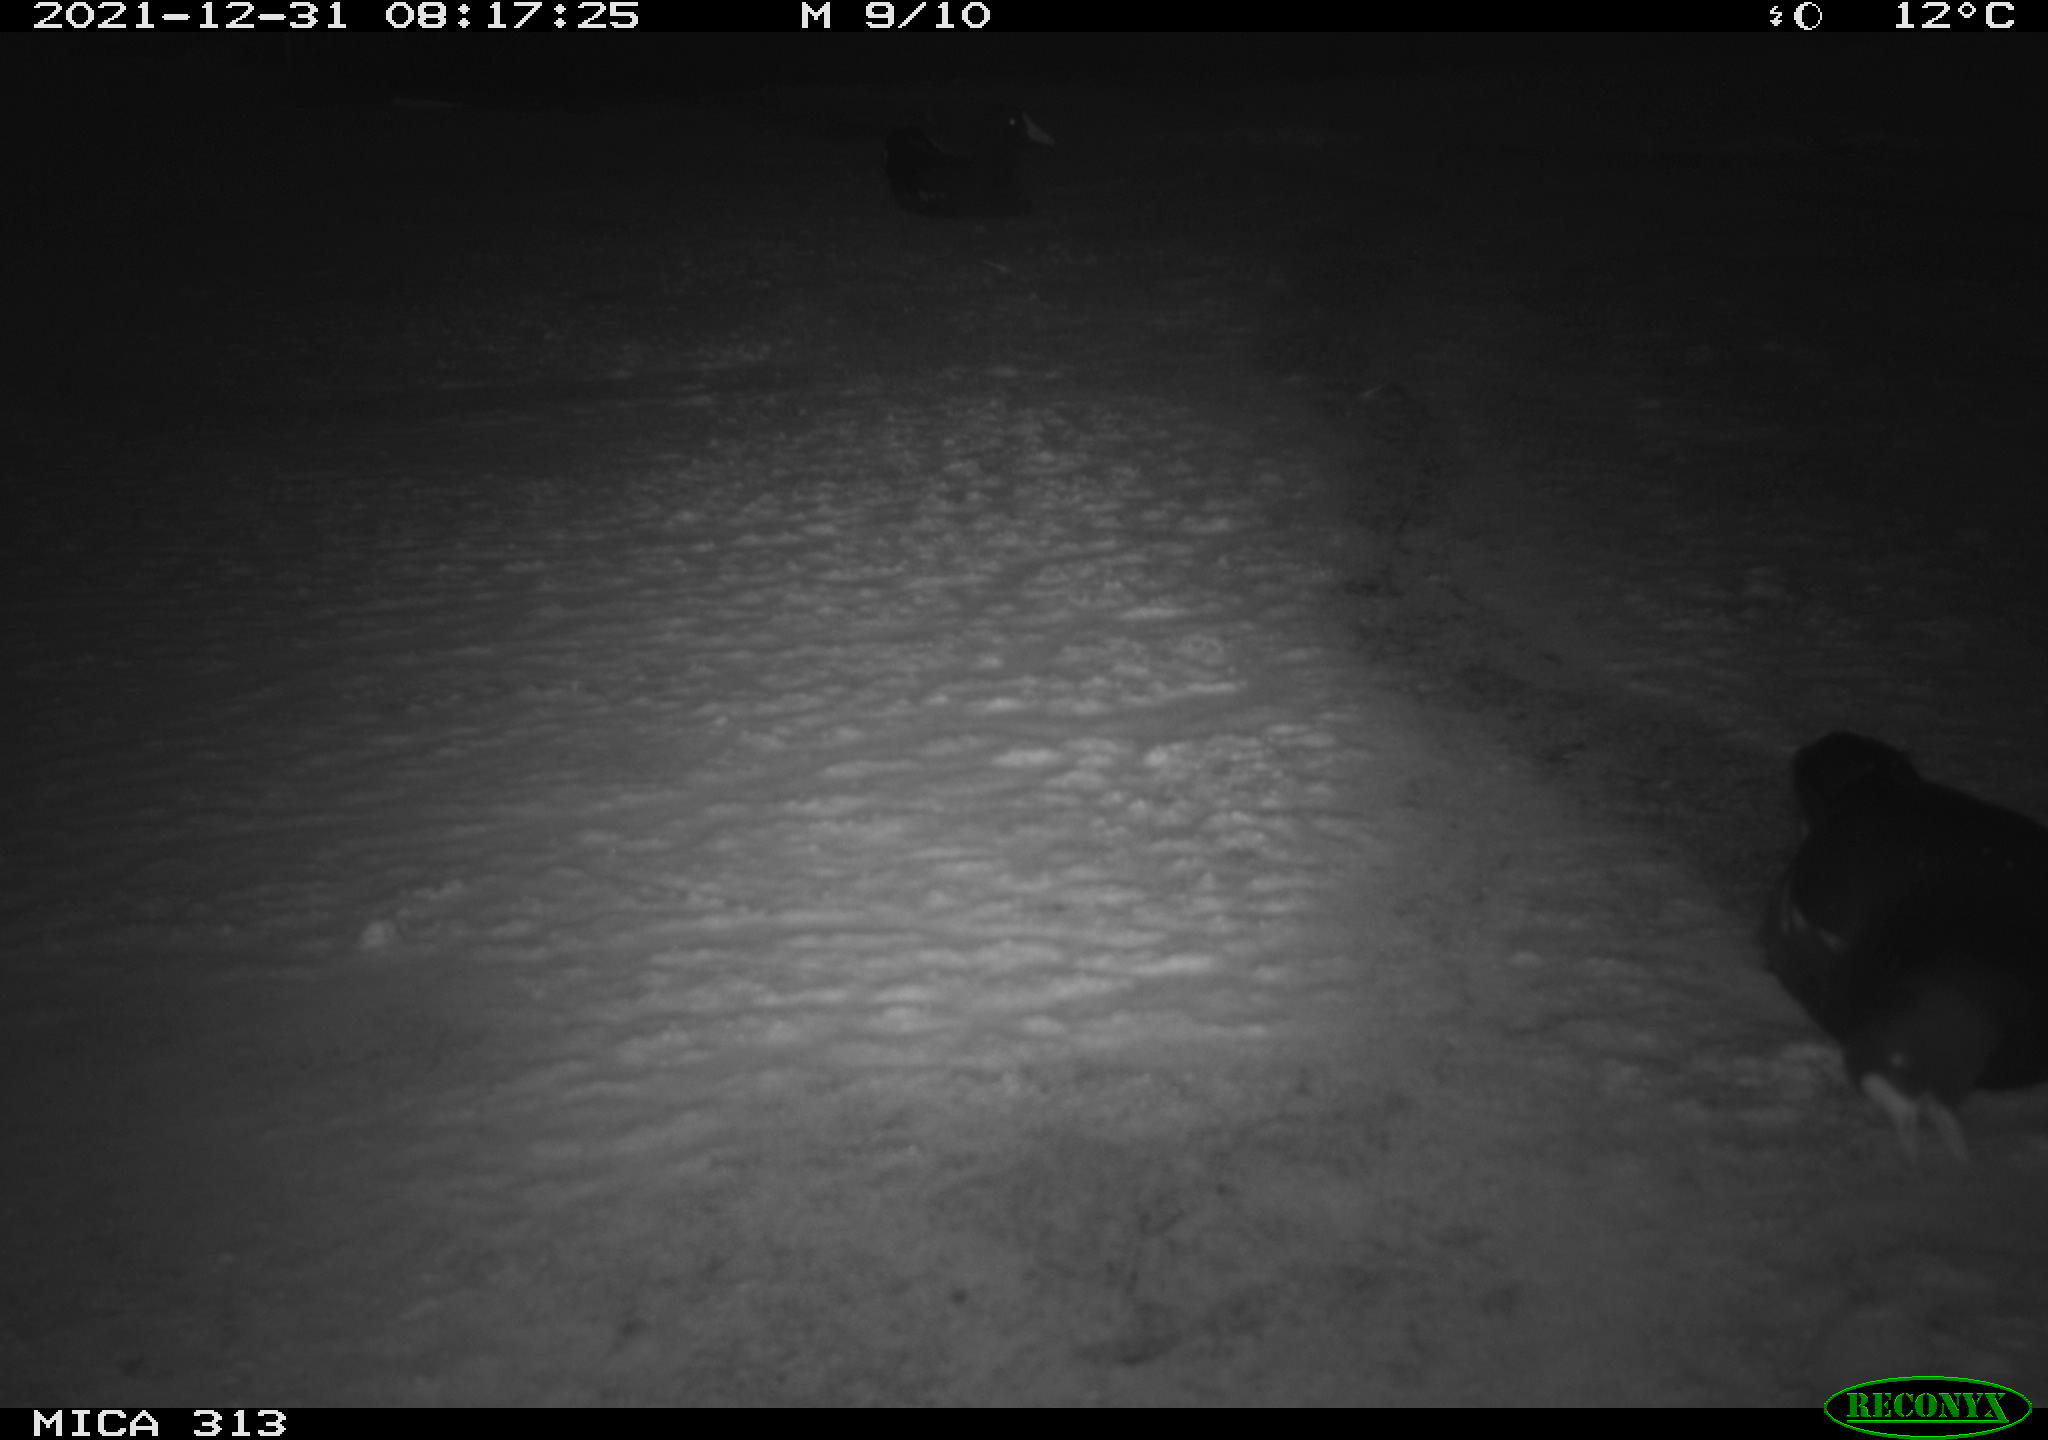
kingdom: Animalia
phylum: Chordata
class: Aves
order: Gruiformes
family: Rallidae
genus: Fulica
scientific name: Fulica atra
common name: Eurasian coot
